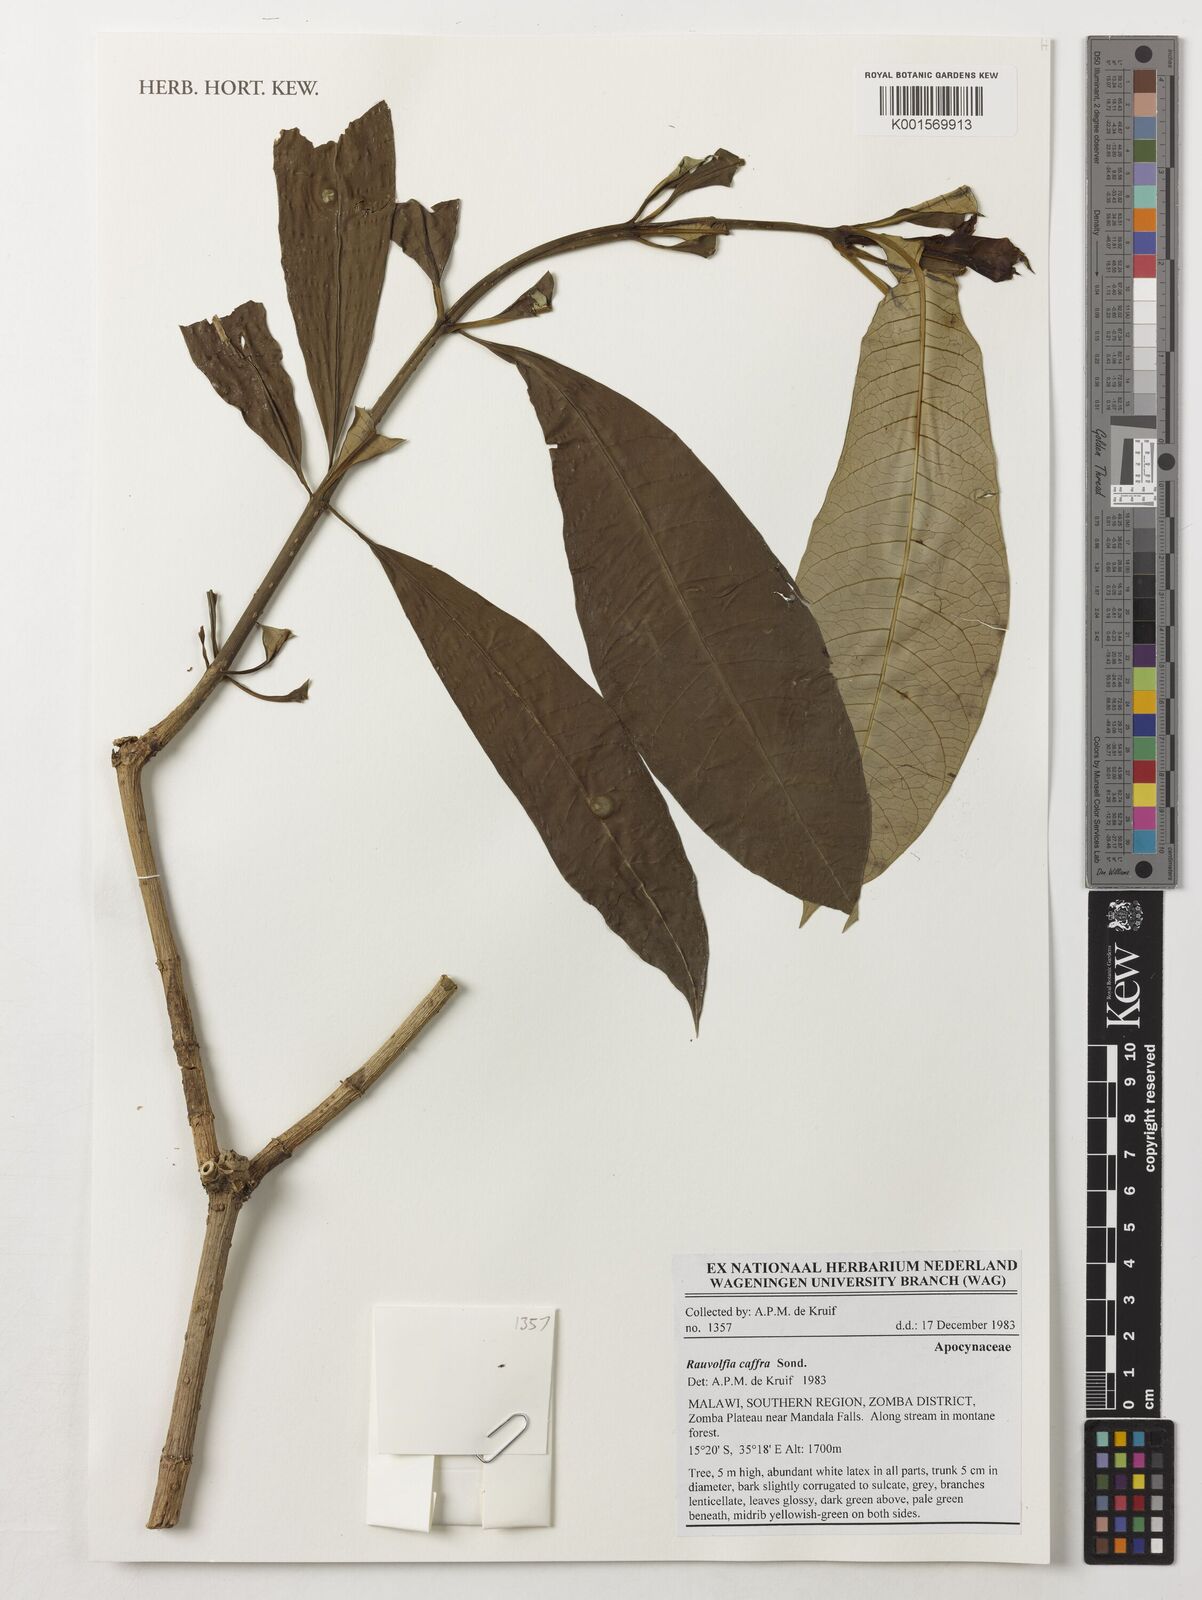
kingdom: Plantae
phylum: Tracheophyta
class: Magnoliopsida
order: Gentianales
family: Apocynaceae
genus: Rauvolfia
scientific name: Rauvolfia caffra
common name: Quininetree
